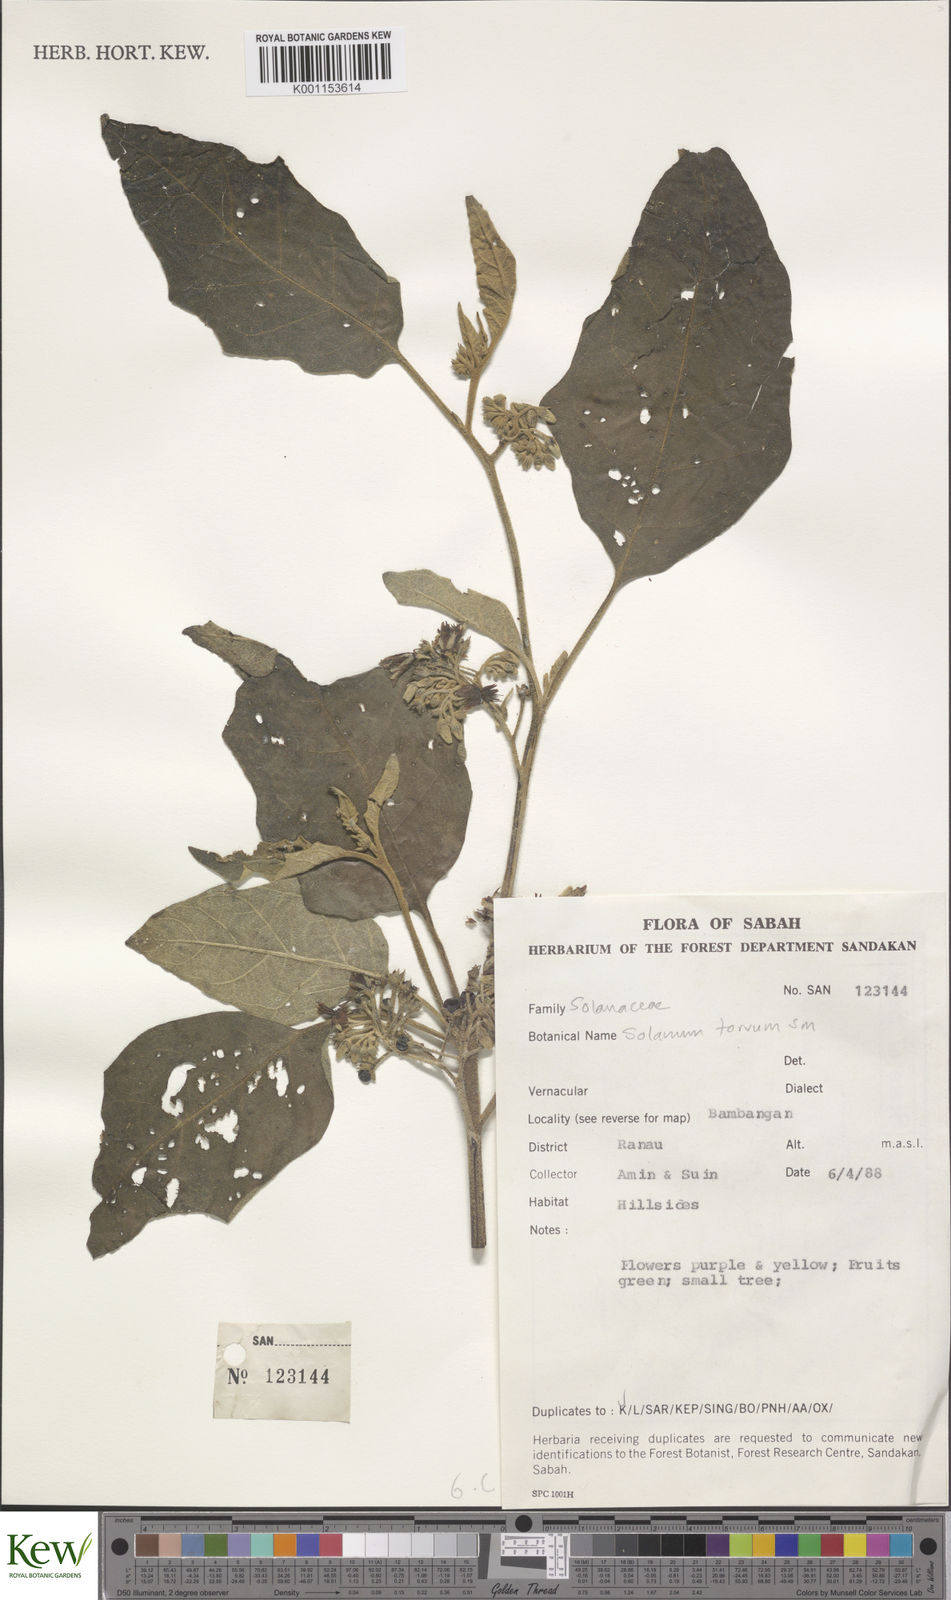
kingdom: Plantae
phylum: Tracheophyta
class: Magnoliopsida
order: Solanales
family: Solanaceae
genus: Solanum
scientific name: Solanum torvum
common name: Turkey berry
